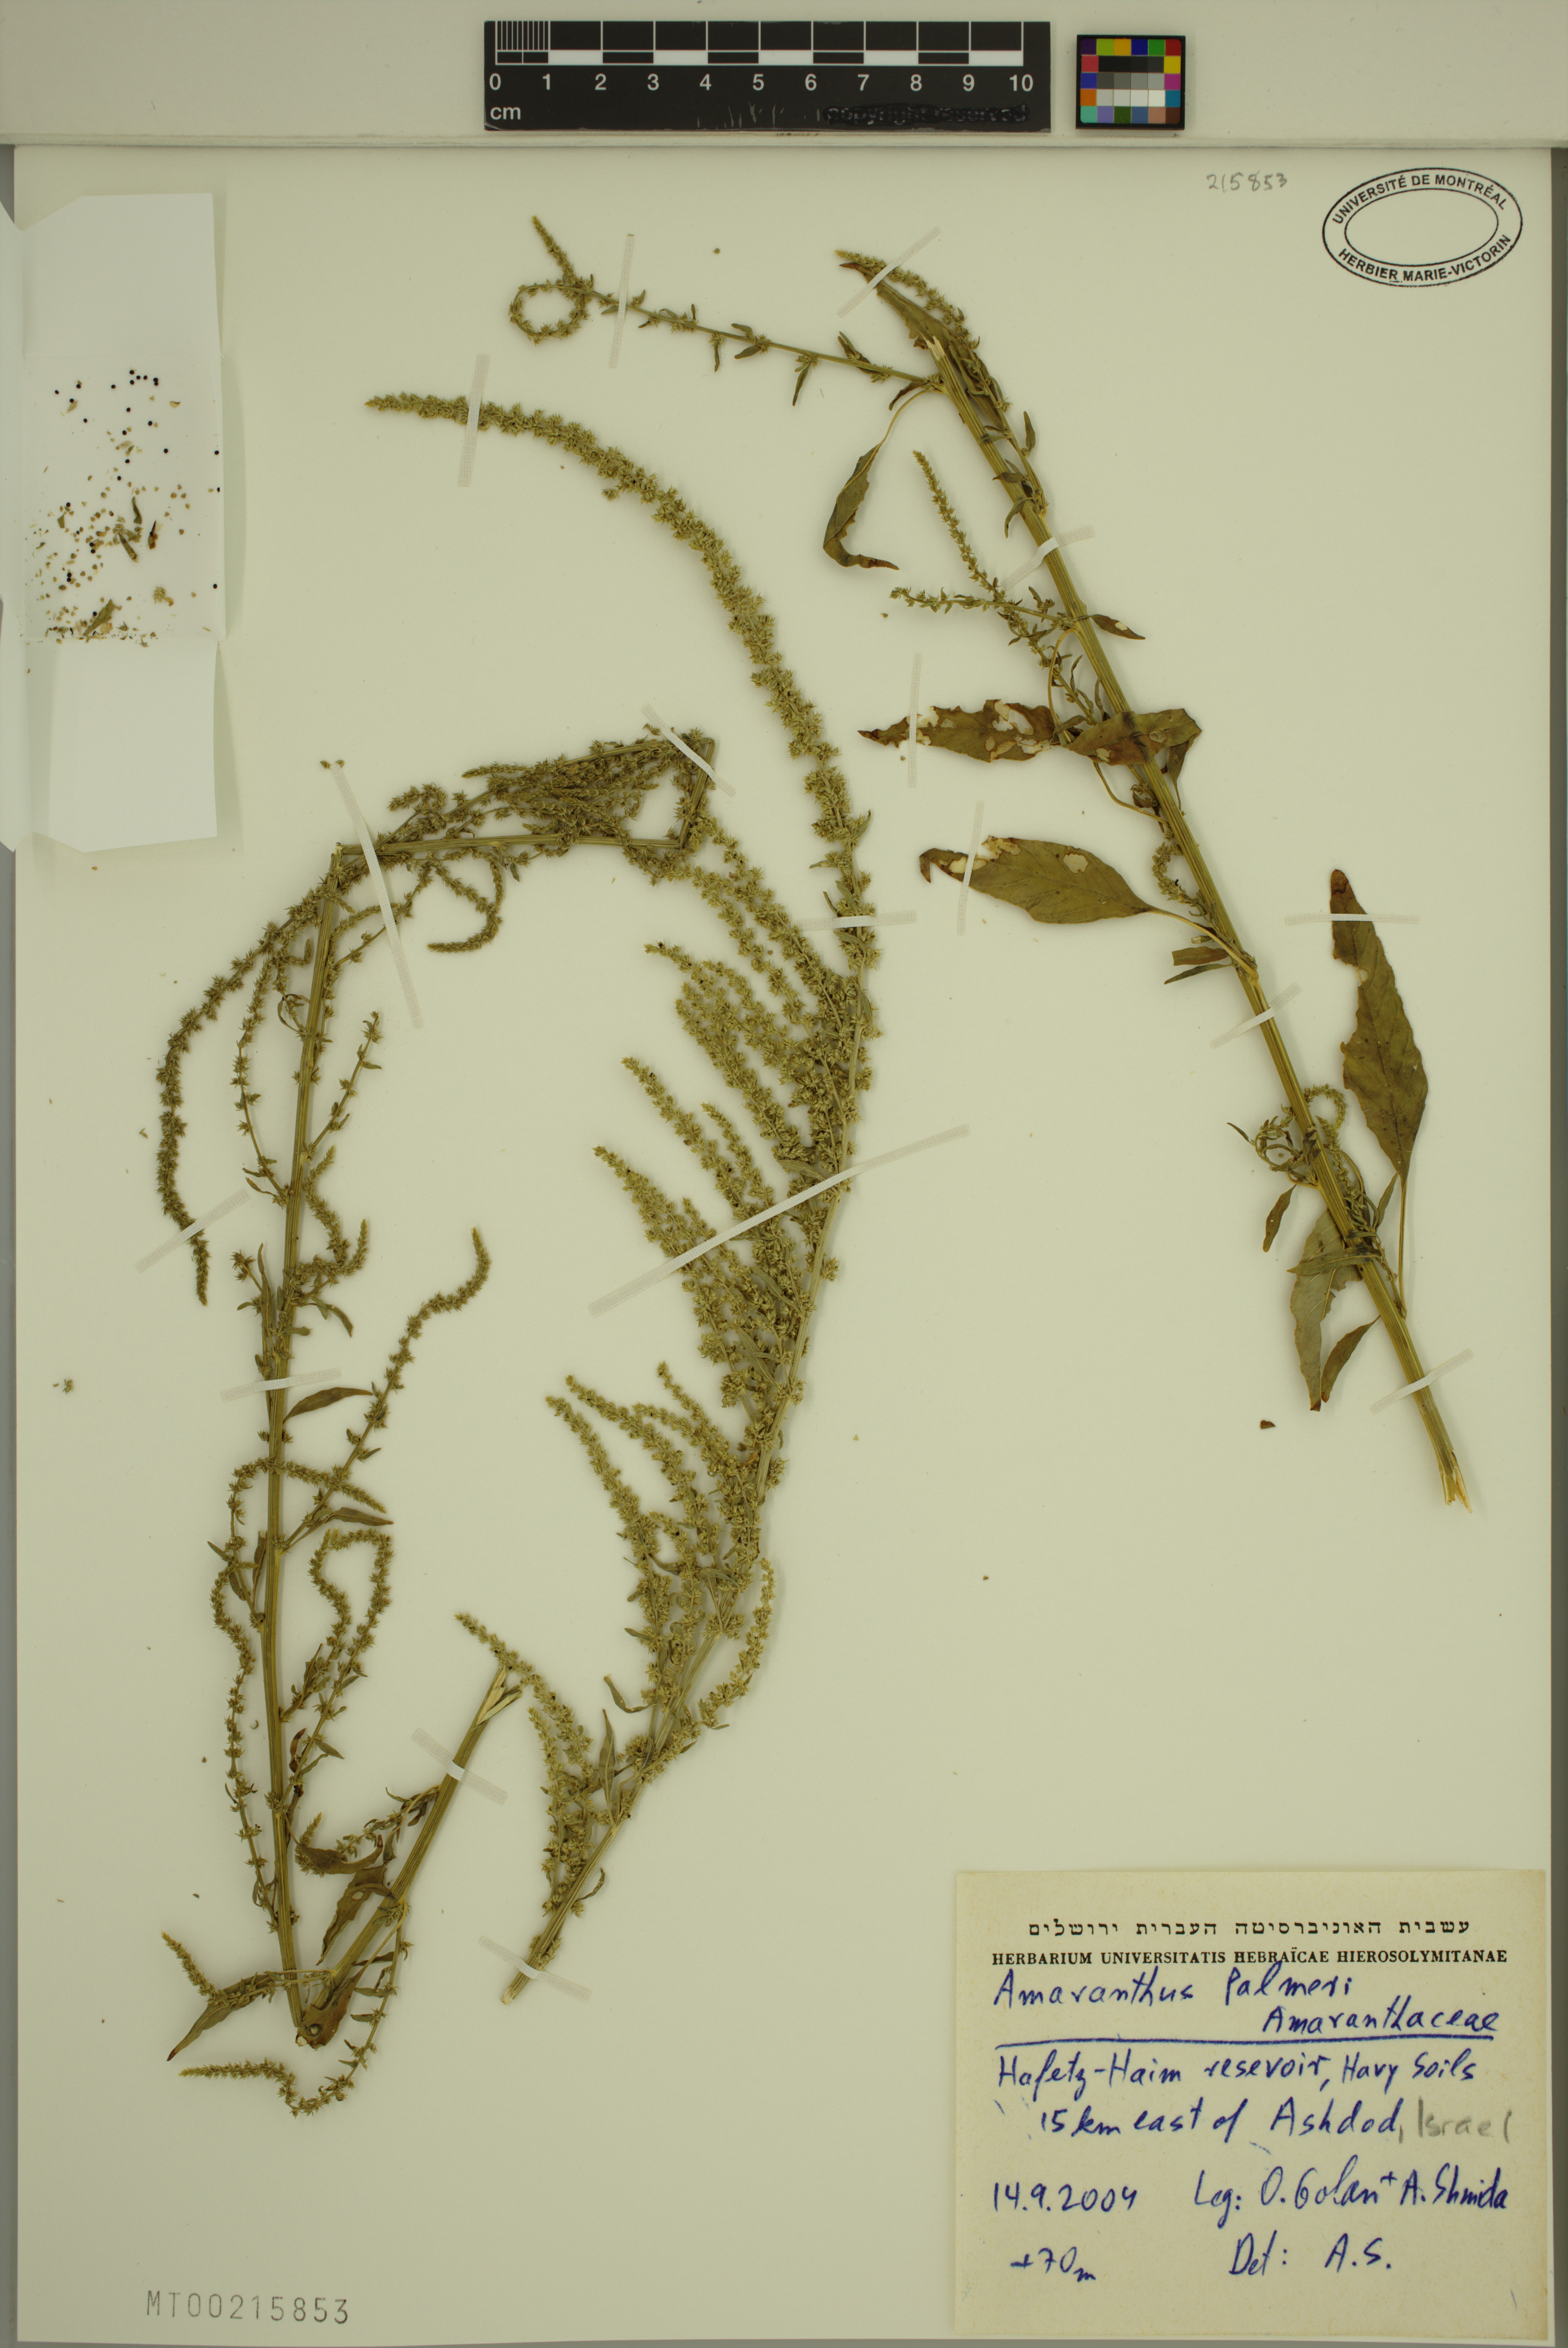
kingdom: Plantae
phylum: Tracheophyta
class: Magnoliopsida
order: Caryophyllales
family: Amaranthaceae
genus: Amaranthus
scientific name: Amaranthus palmeri
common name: Dioecious amaranth
